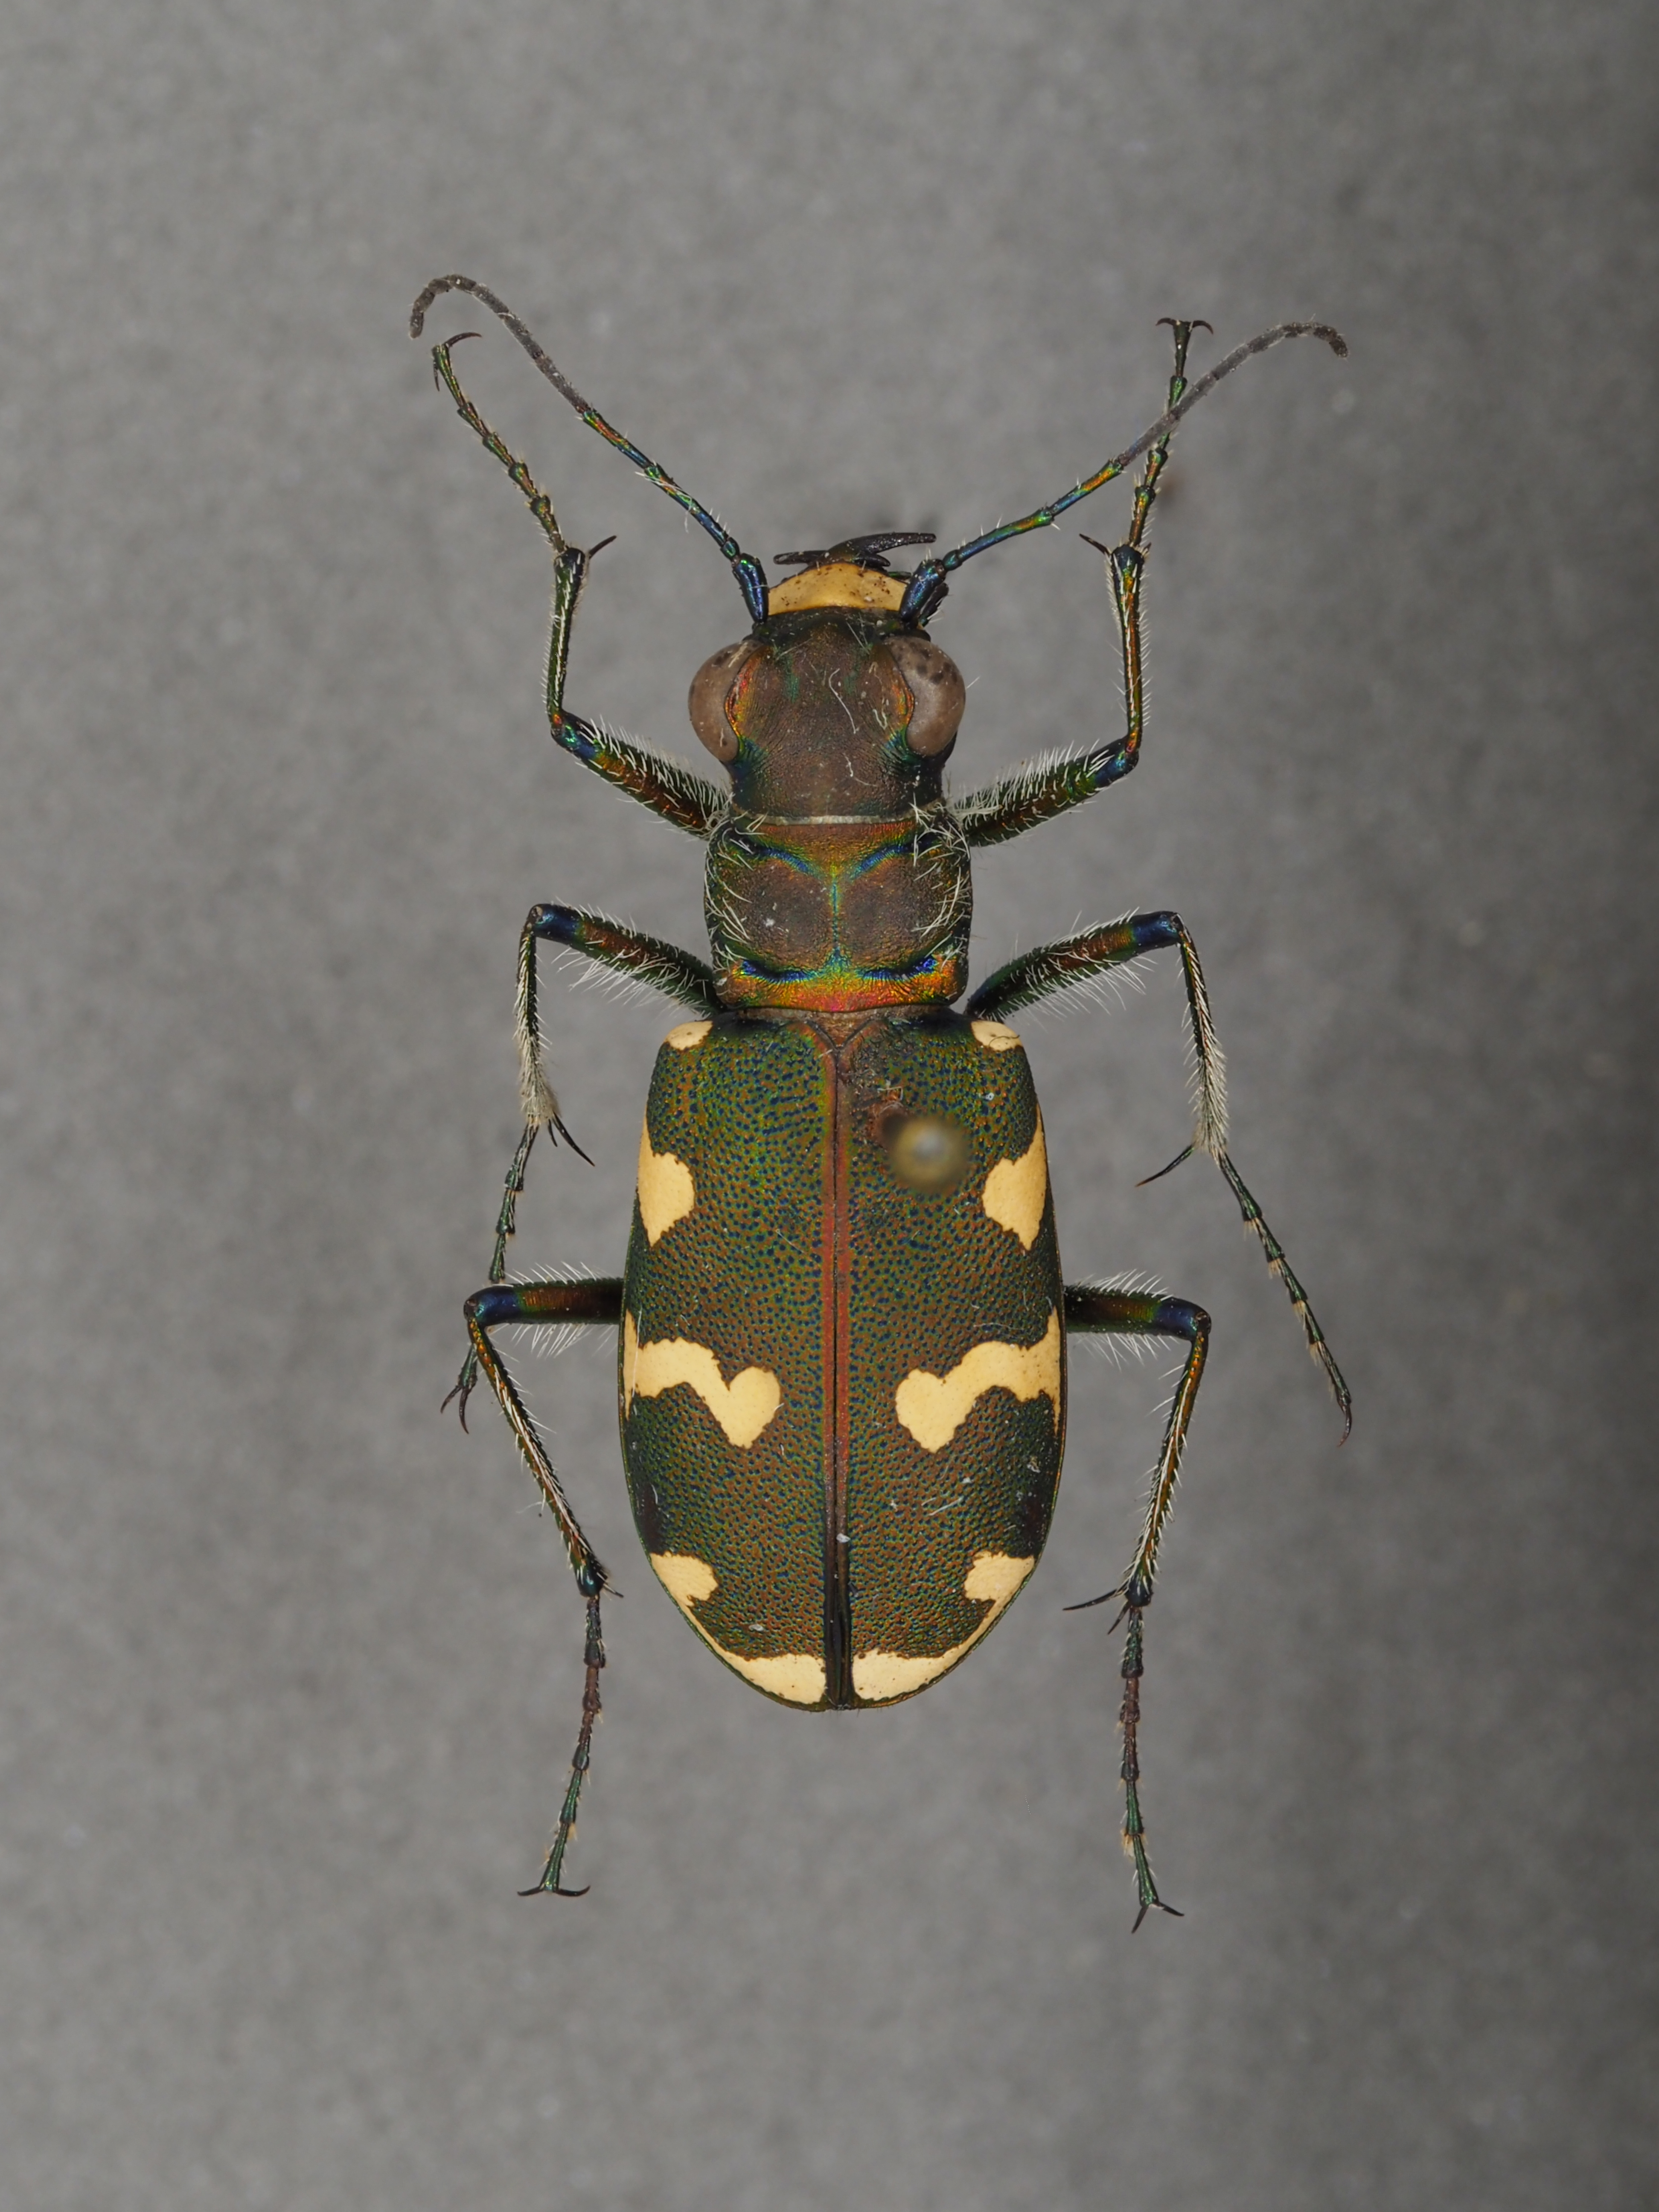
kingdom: Animalia
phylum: Arthropoda
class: Insecta
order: Coleoptera
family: Carabidae
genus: Cicindela
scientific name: Cicindela hybrida
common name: Northern dune tiger beetle
